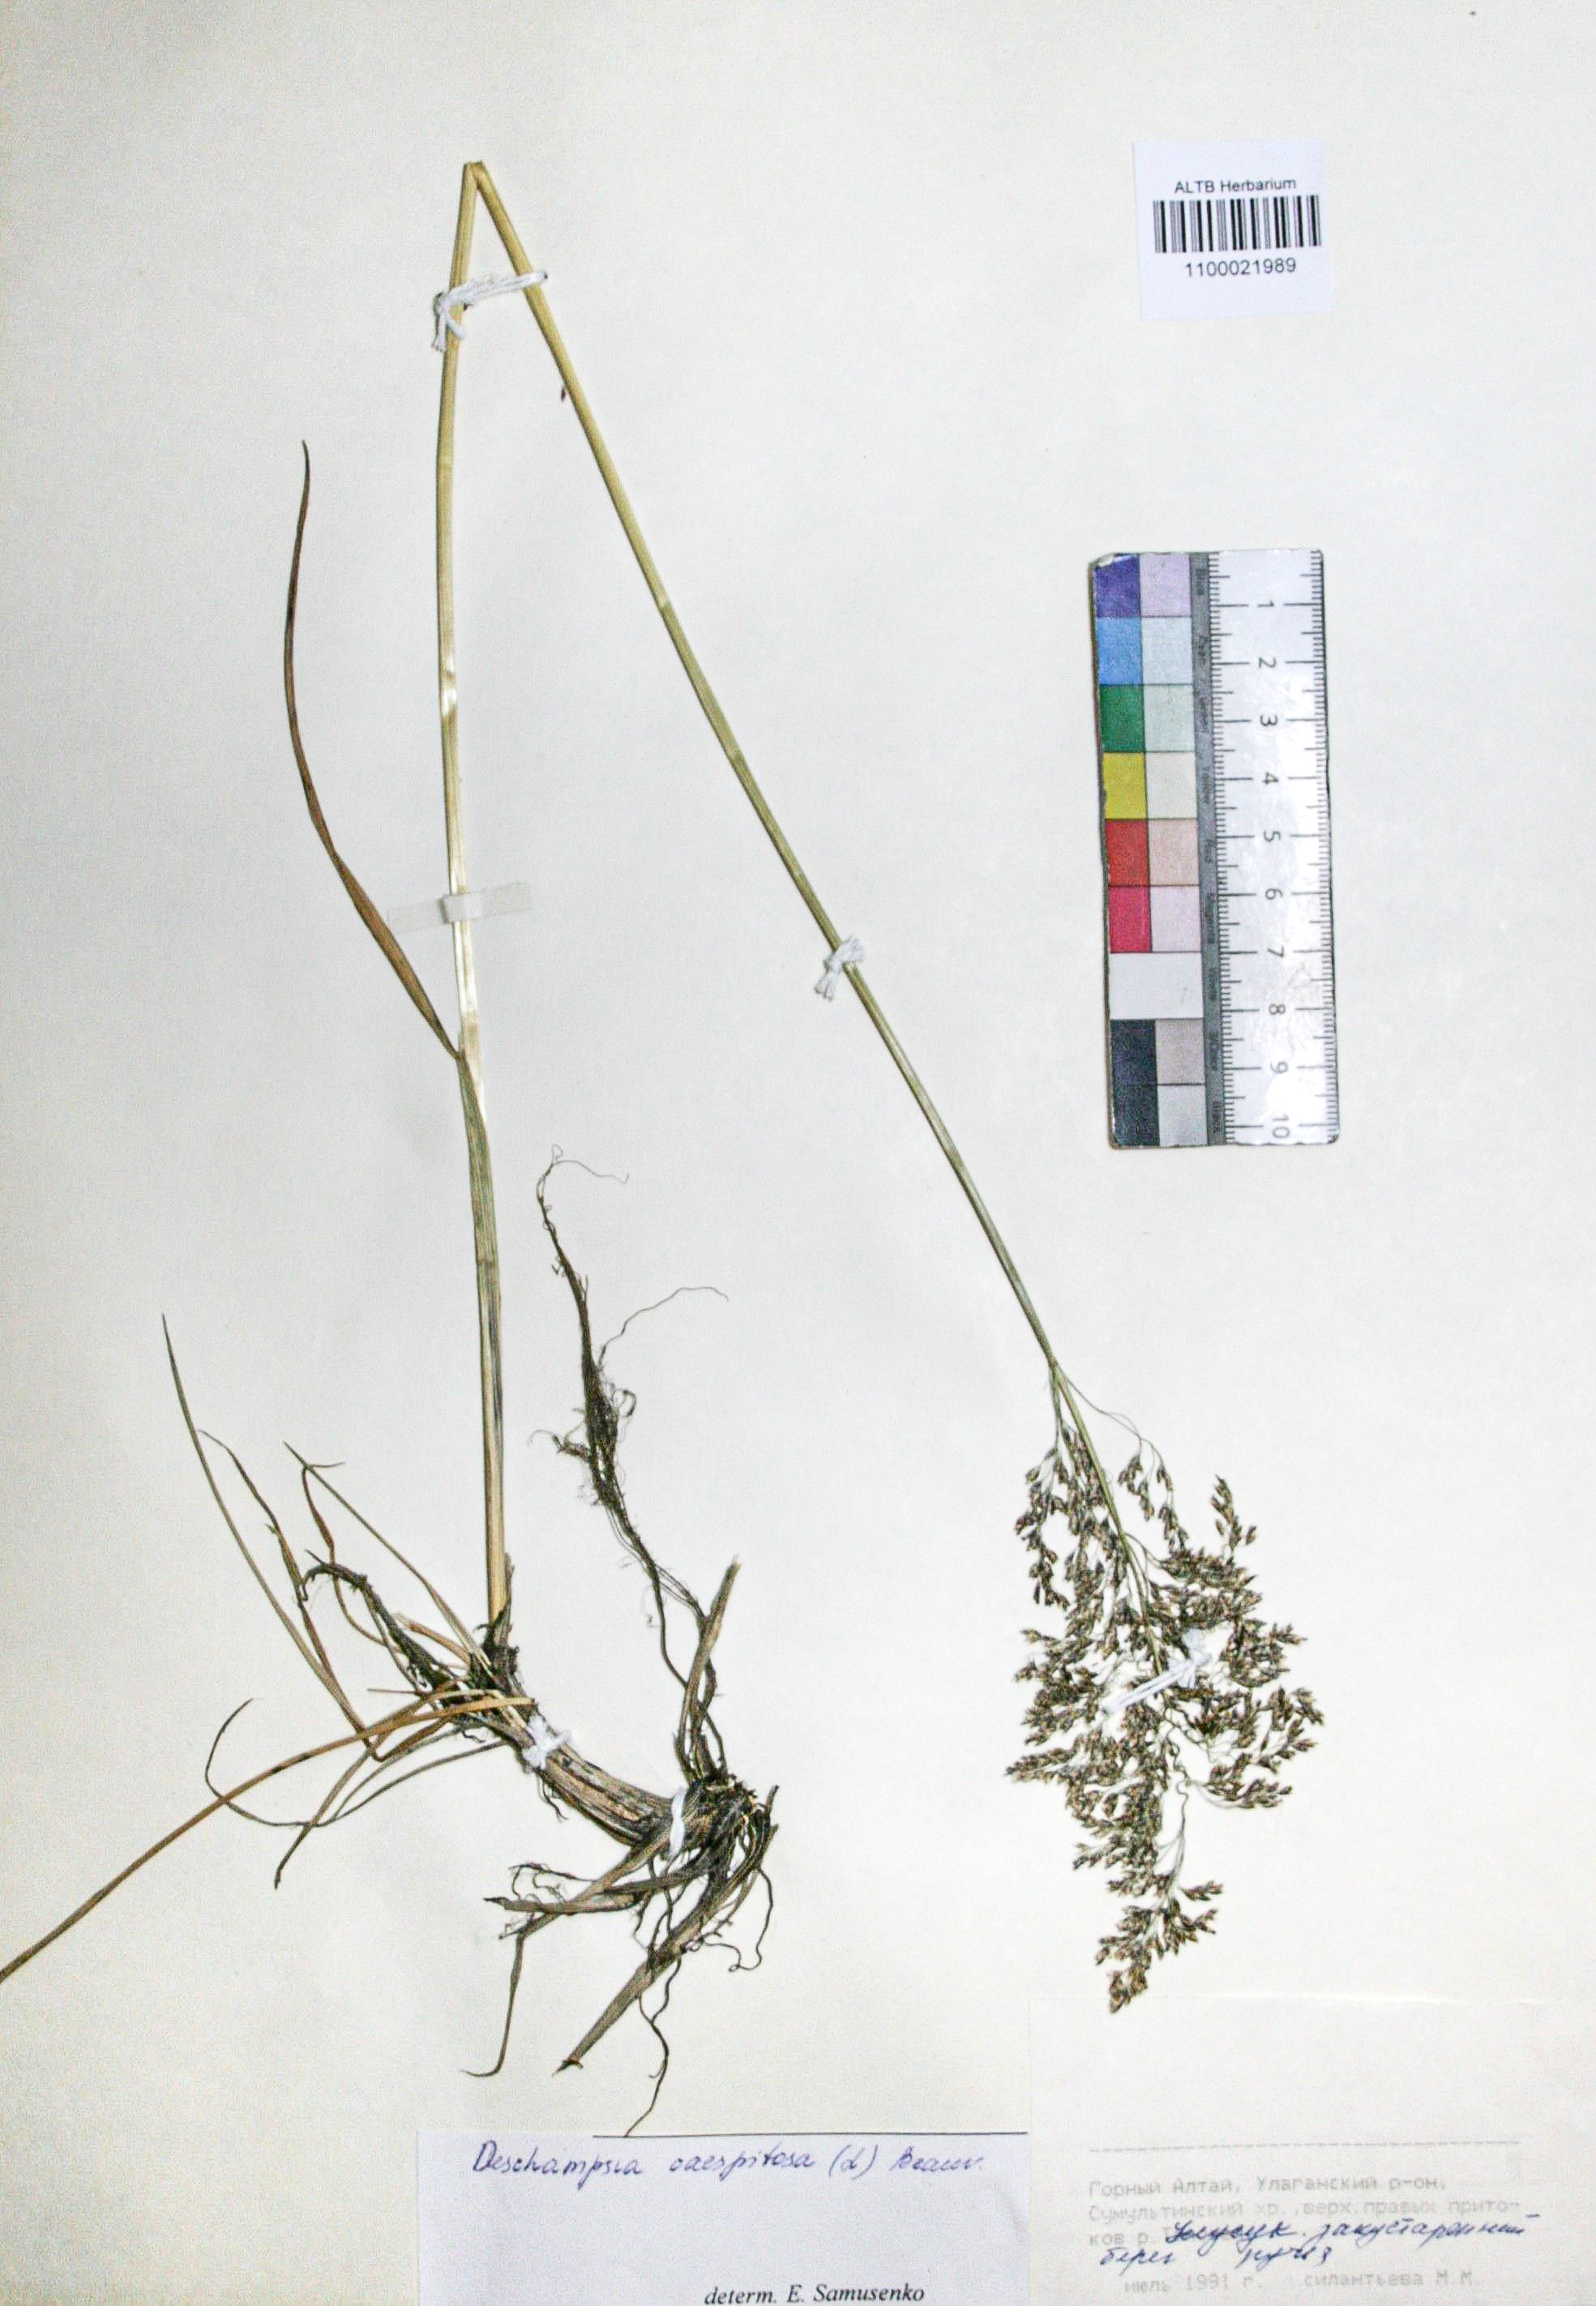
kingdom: Plantae
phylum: Tracheophyta
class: Liliopsida
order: Poales
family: Poaceae
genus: Deschampsia
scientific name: Deschampsia cespitosa
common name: Tufted hair-grass
